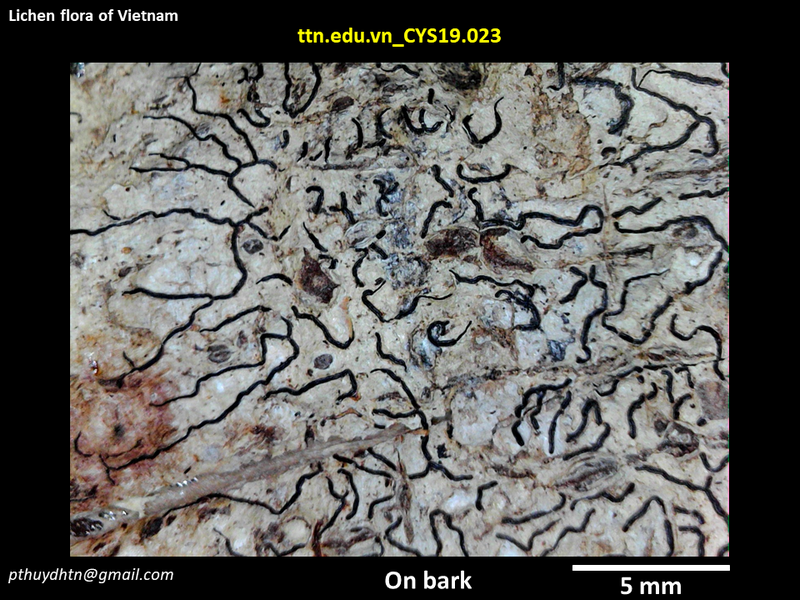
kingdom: Fungi
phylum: Ascomycota
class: Lecanoromycetes
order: Ostropales
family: Graphidaceae
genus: Graphis
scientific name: Graphis
